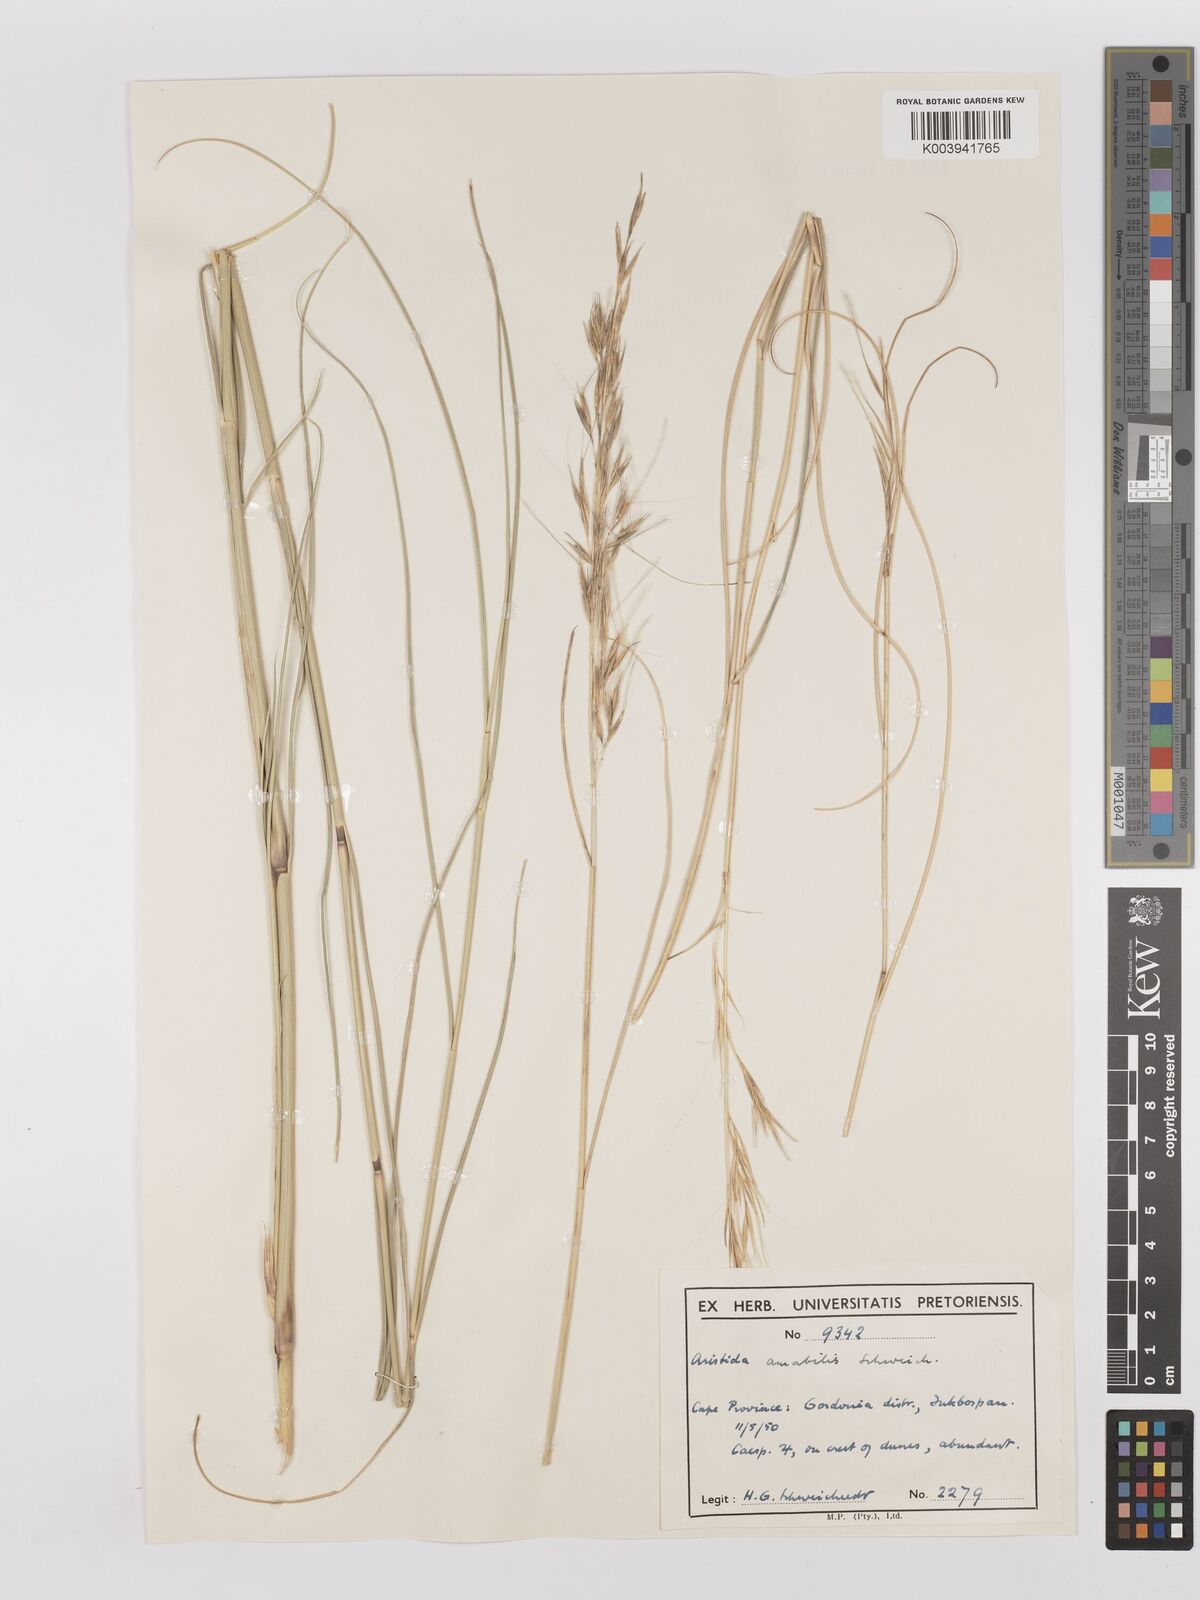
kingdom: Plantae
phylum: Tracheophyta
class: Liliopsida
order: Poales
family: Poaceae
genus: Stipagrostis
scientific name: Stipagrostis amabilis
